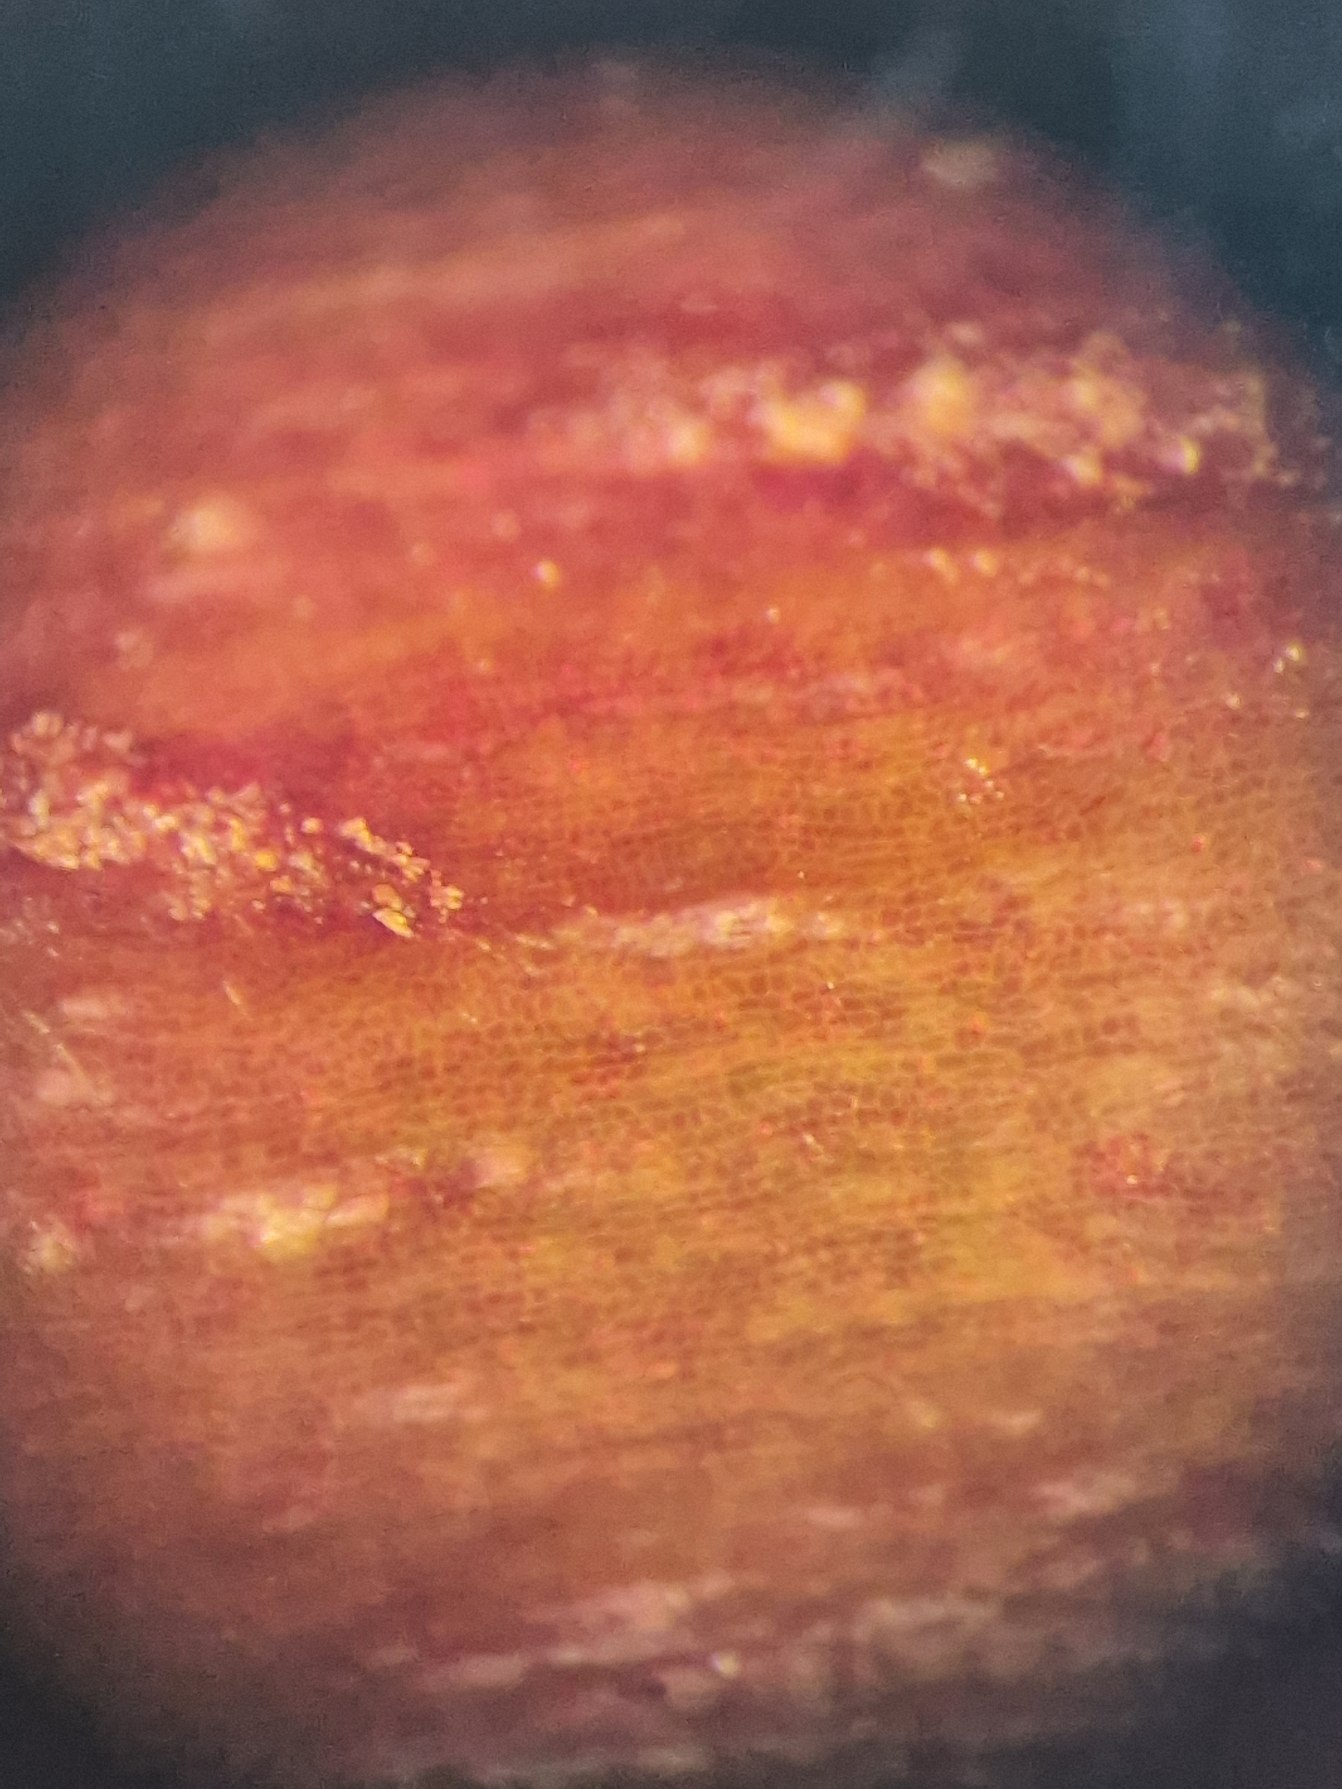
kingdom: Plantae
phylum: Tracheophyta
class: Magnoliopsida
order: Asterales
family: Asteraceae
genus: Solidago
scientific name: Solidago gigantea
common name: Sildig gyldenris
